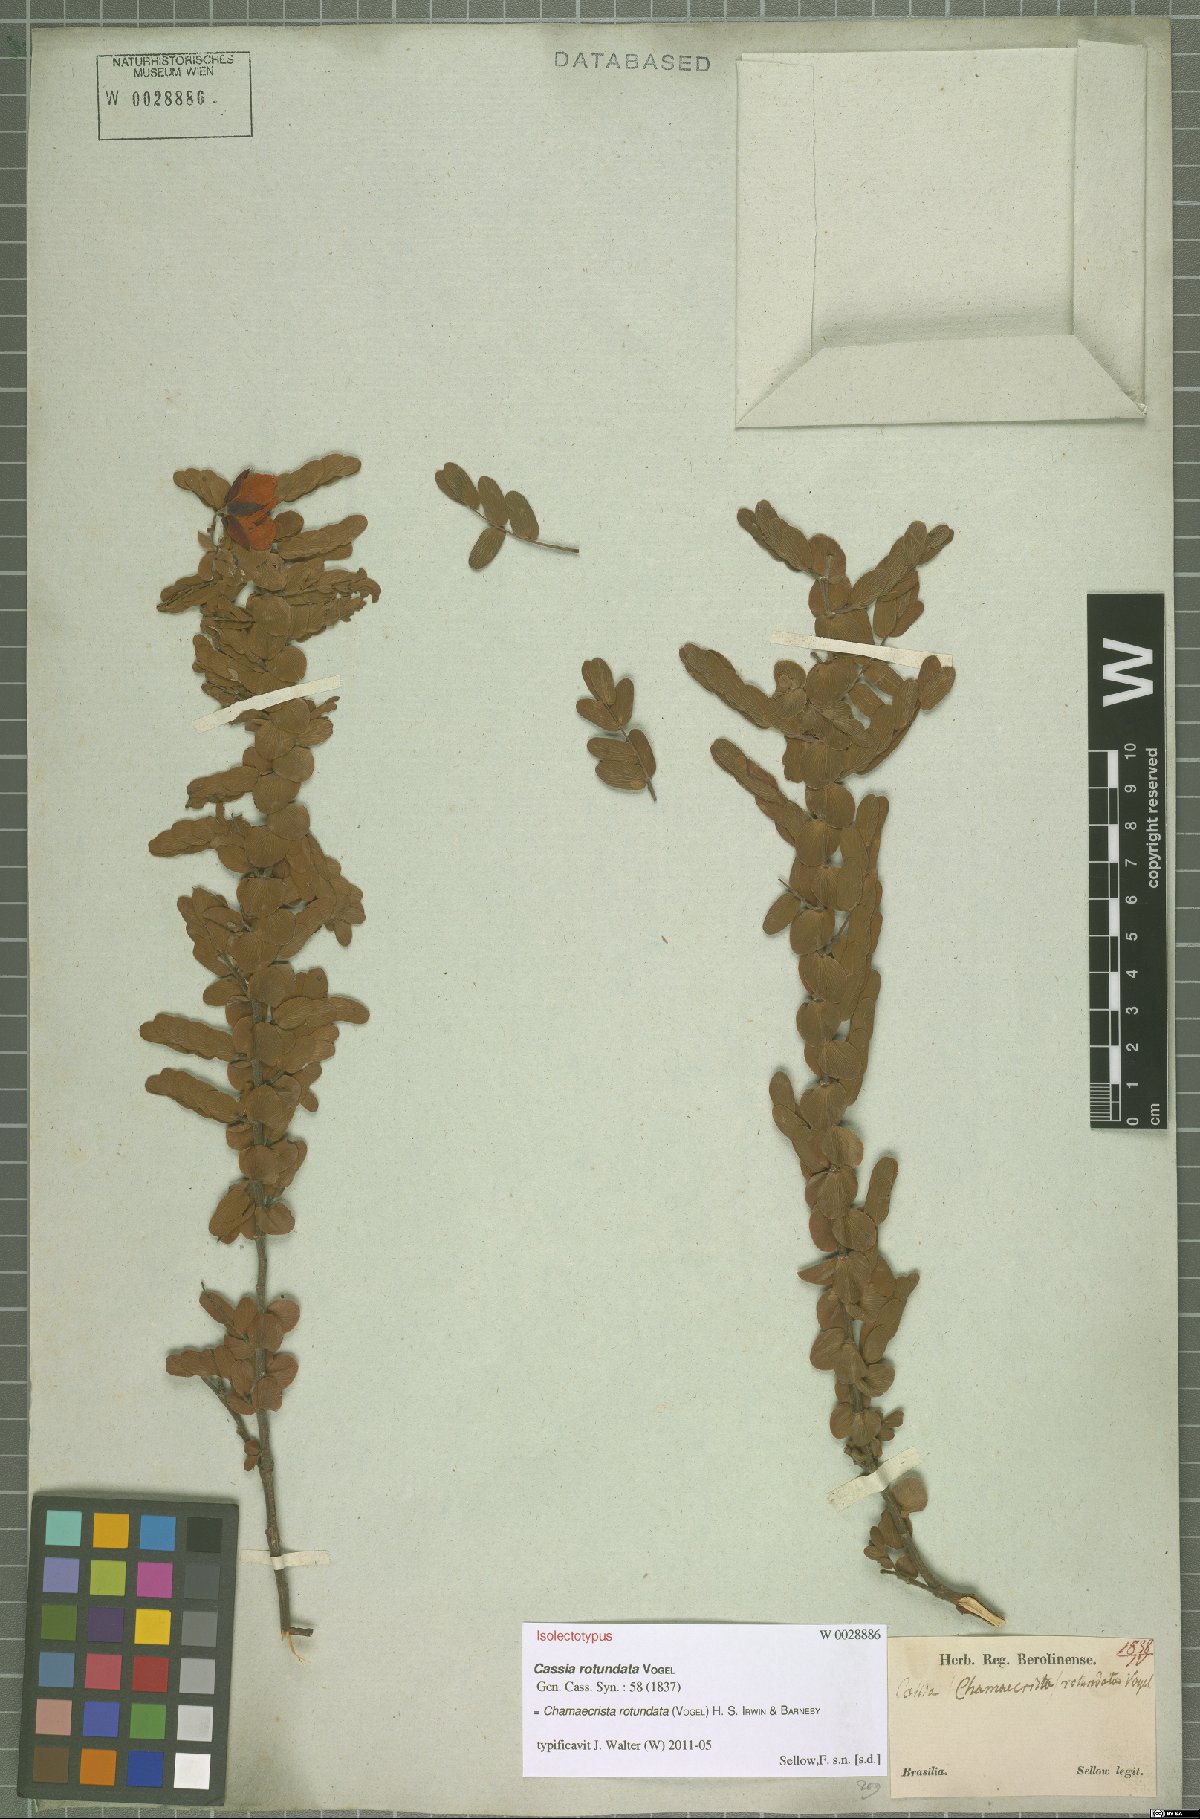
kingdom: Plantae
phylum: Tracheophyta
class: Magnoliopsida
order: Fabales
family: Fabaceae
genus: Chamaecrista
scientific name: Chamaecrista rotundata
